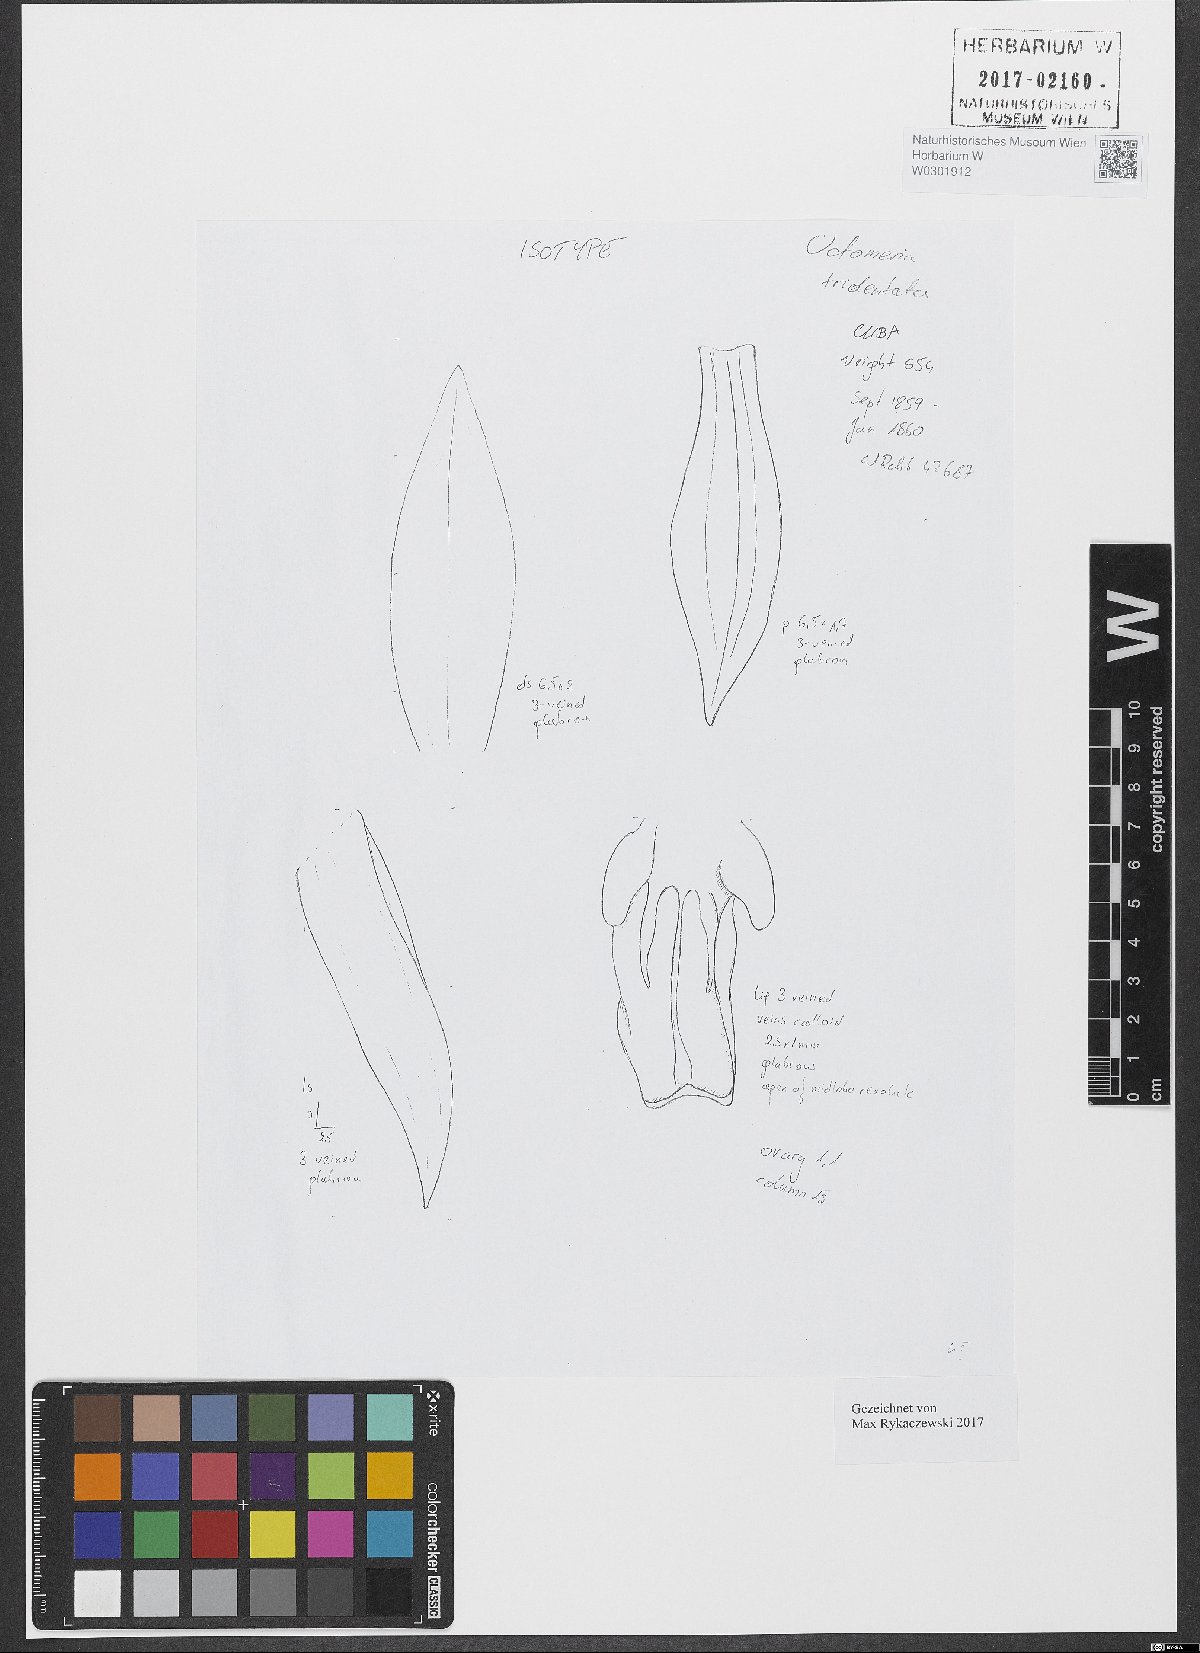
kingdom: Plantae
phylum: Tracheophyta
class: Liliopsida
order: Asparagales
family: Orchidaceae
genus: Octomeria
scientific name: Octomeria tridentata
